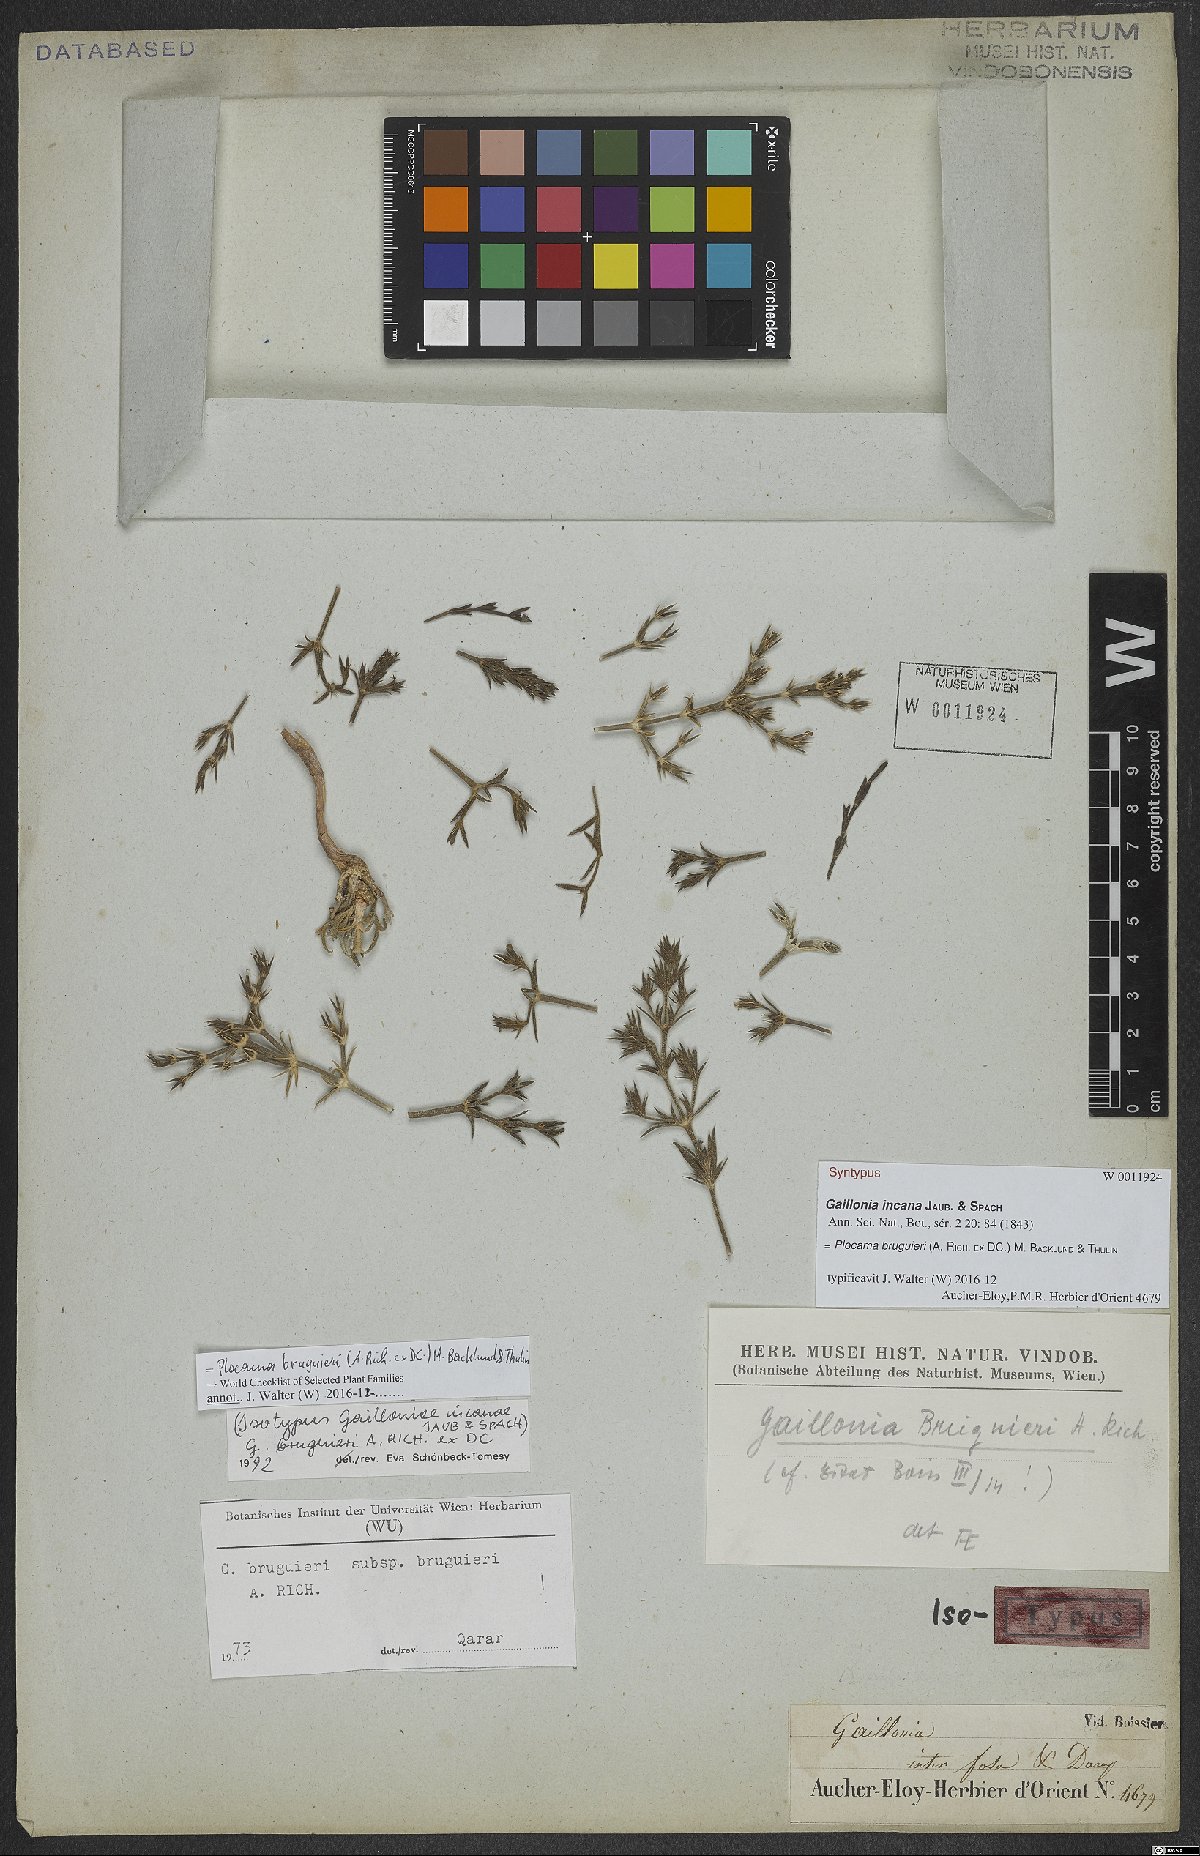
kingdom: Plantae
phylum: Tracheophyta
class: Magnoliopsida
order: Gentianales
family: Rubiaceae
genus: Plocama
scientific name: Plocama bruguieri
